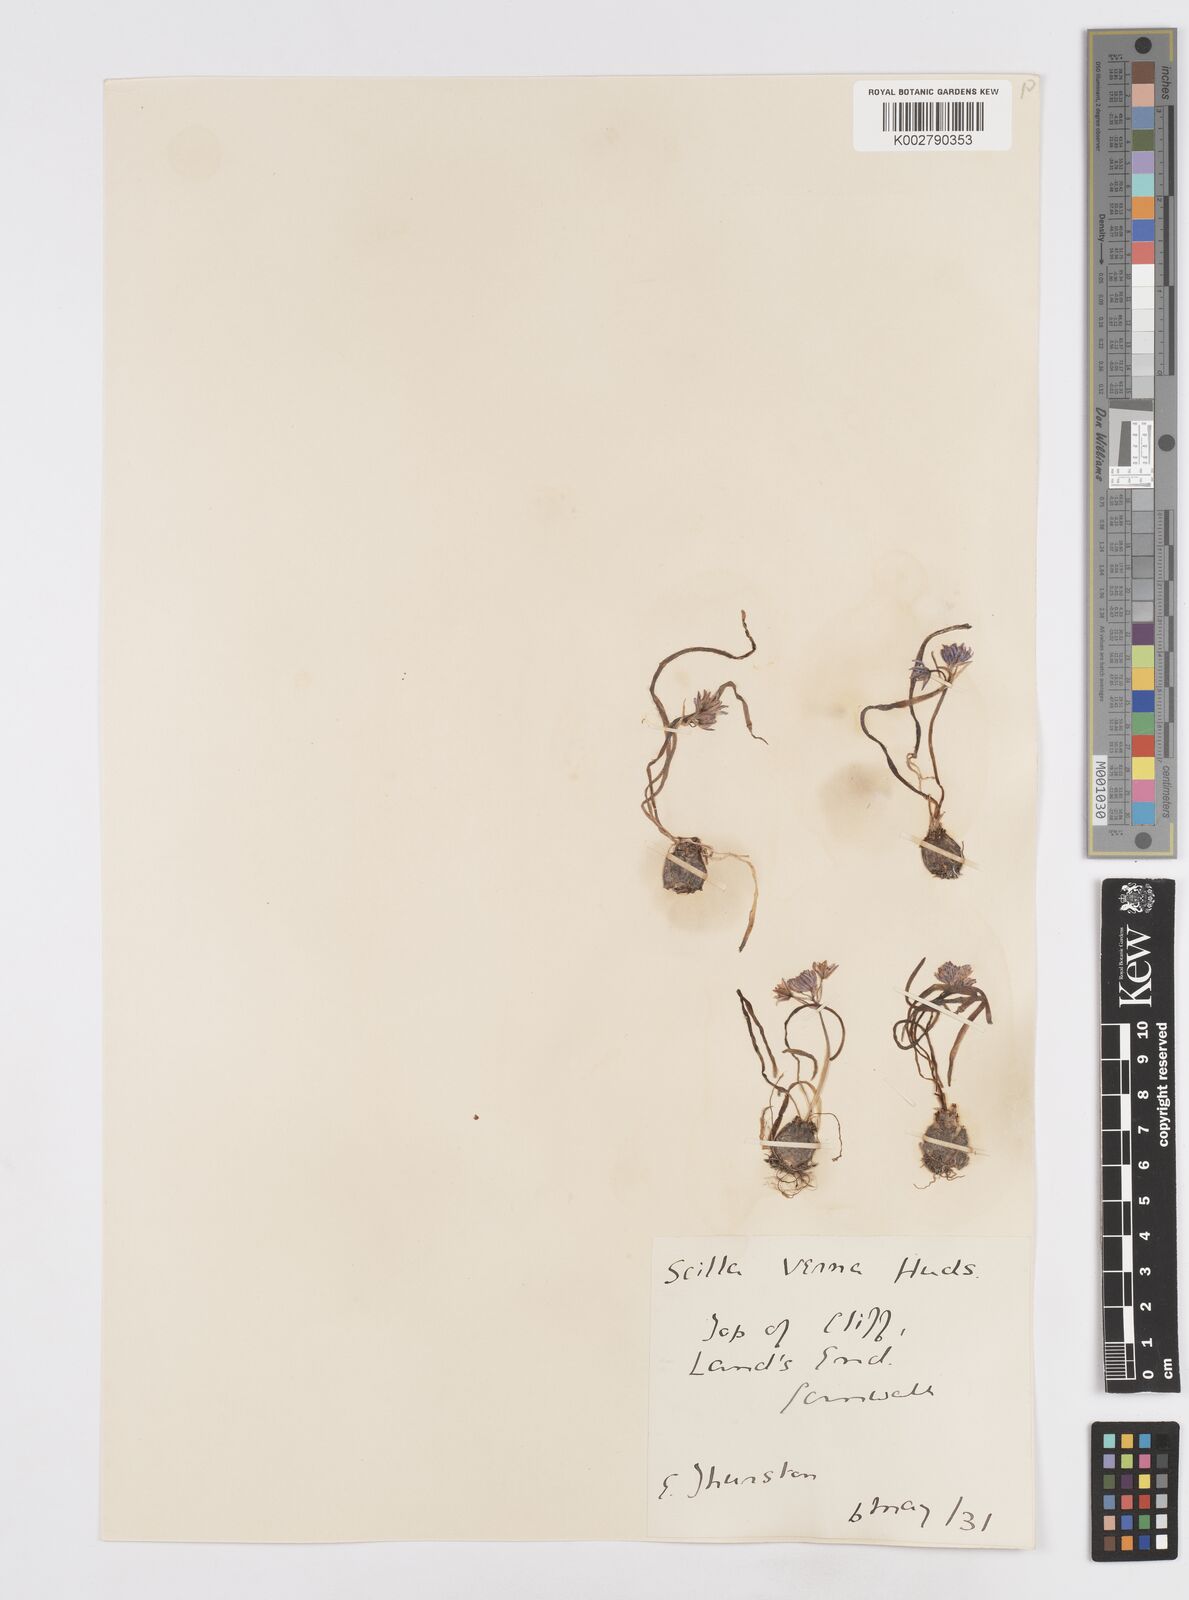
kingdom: Plantae
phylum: Tracheophyta
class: Liliopsida
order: Asparagales
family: Asparagaceae
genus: Scilla
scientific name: Scilla verna
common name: Spring squill
